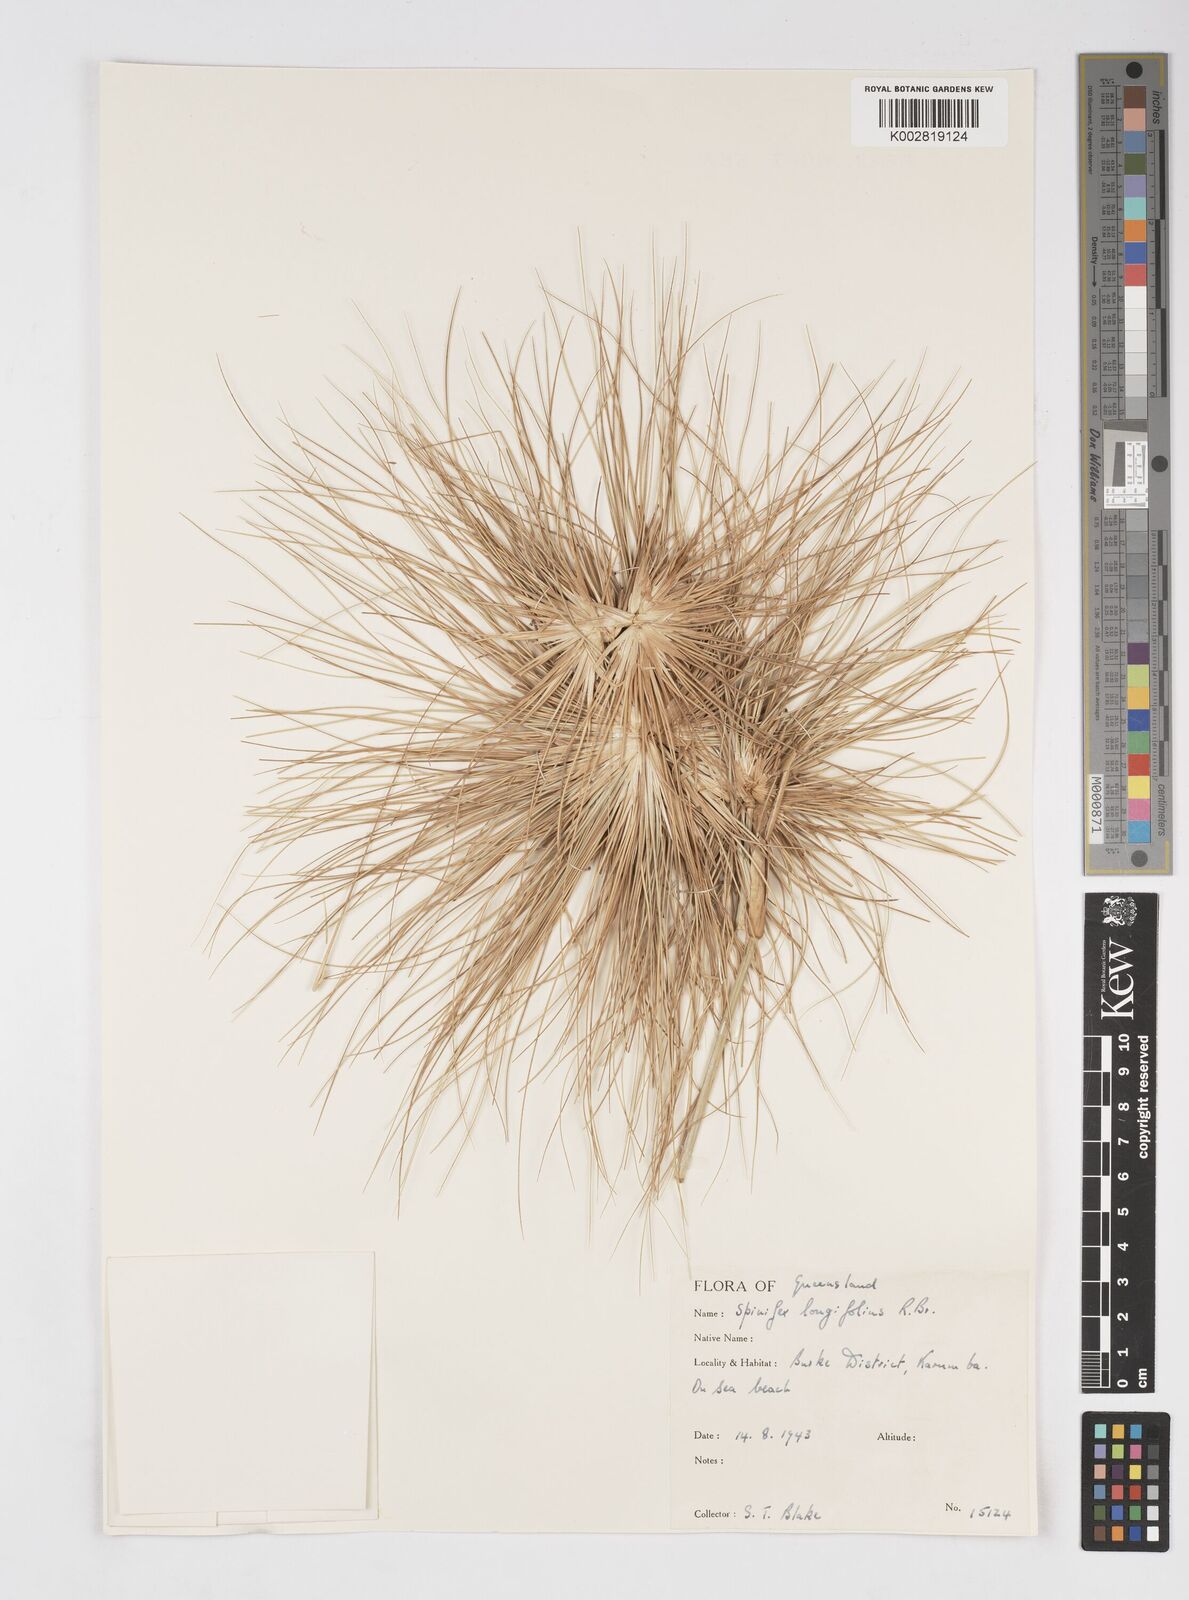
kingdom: Plantae
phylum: Tracheophyta
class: Liliopsida
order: Poales
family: Poaceae
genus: Spinifex
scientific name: Spinifex longifolius
